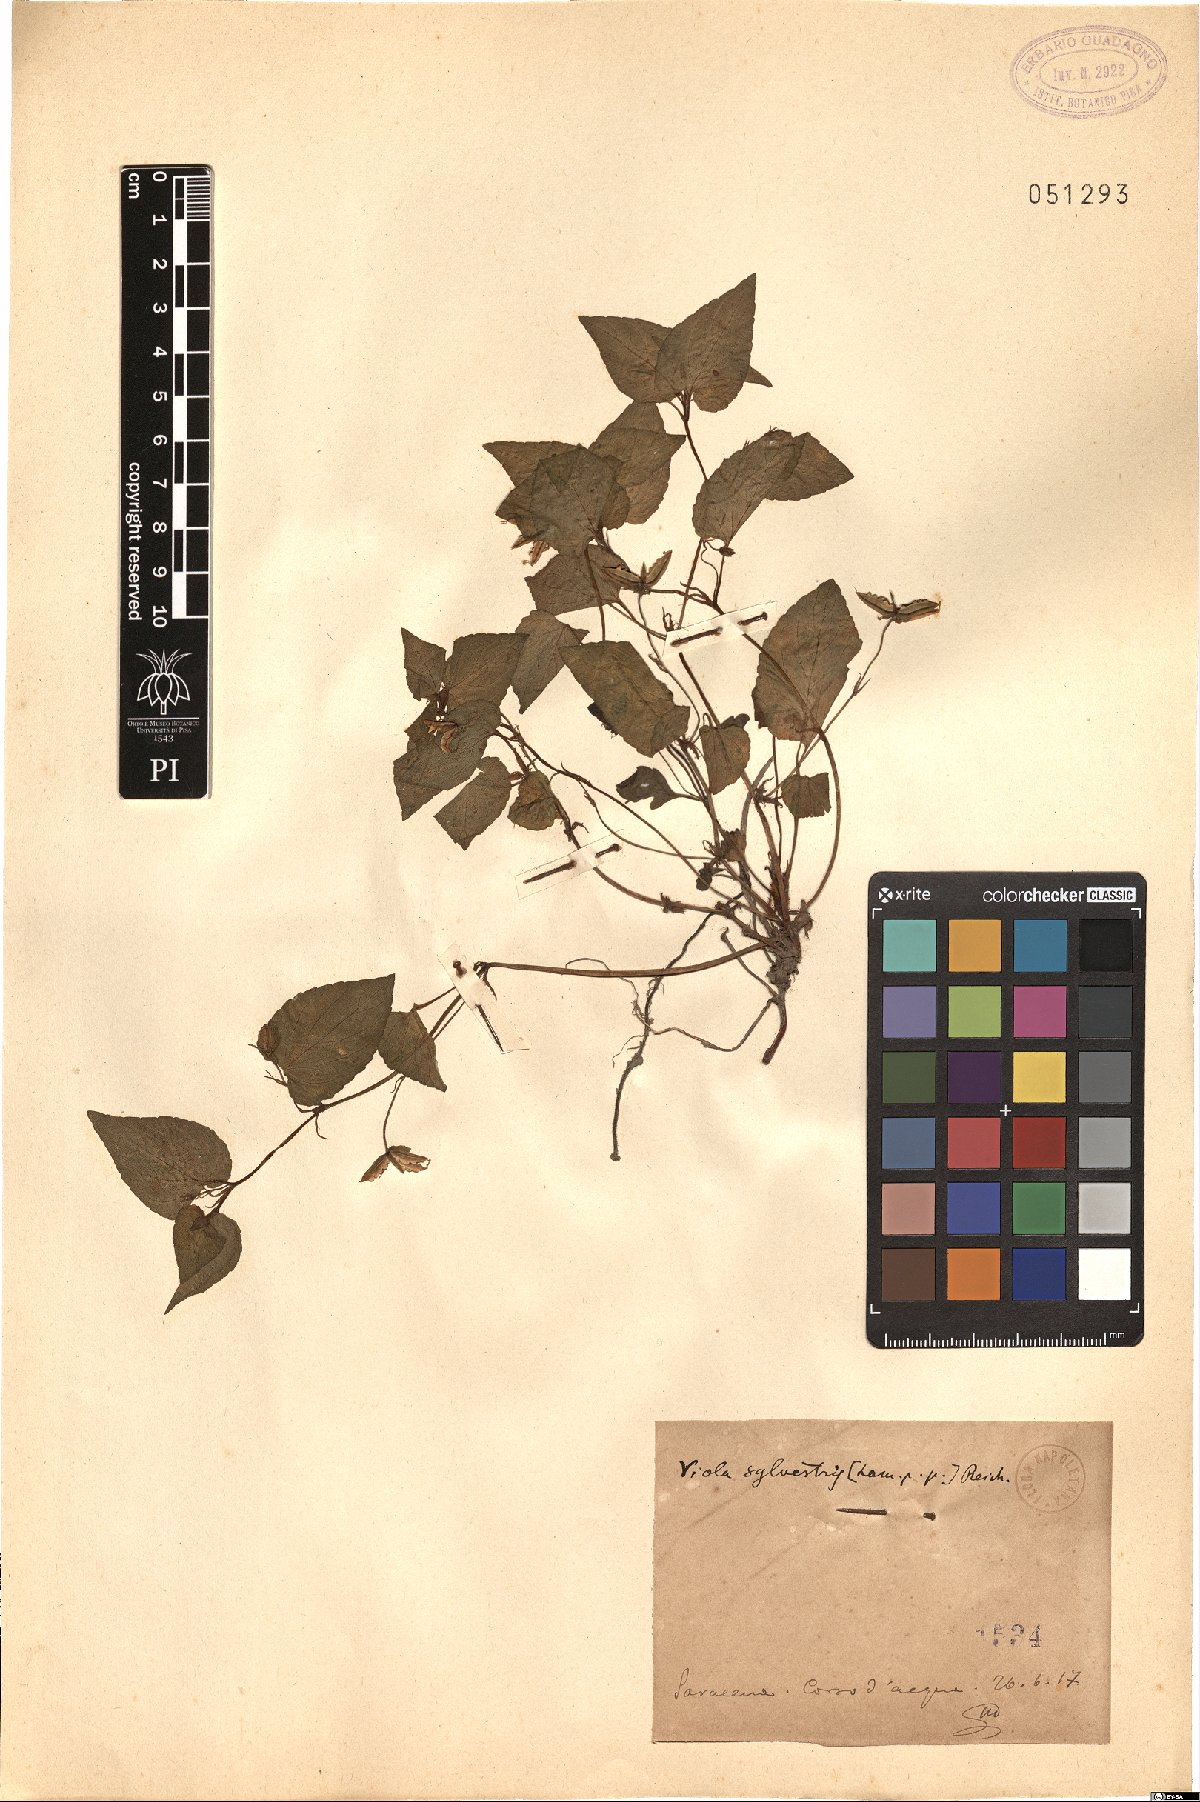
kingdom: Plantae
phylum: Tracheophyta
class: Magnoliopsida
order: Malpighiales
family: Violaceae
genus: Viola
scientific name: Viola canina
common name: Heath dog-violet
